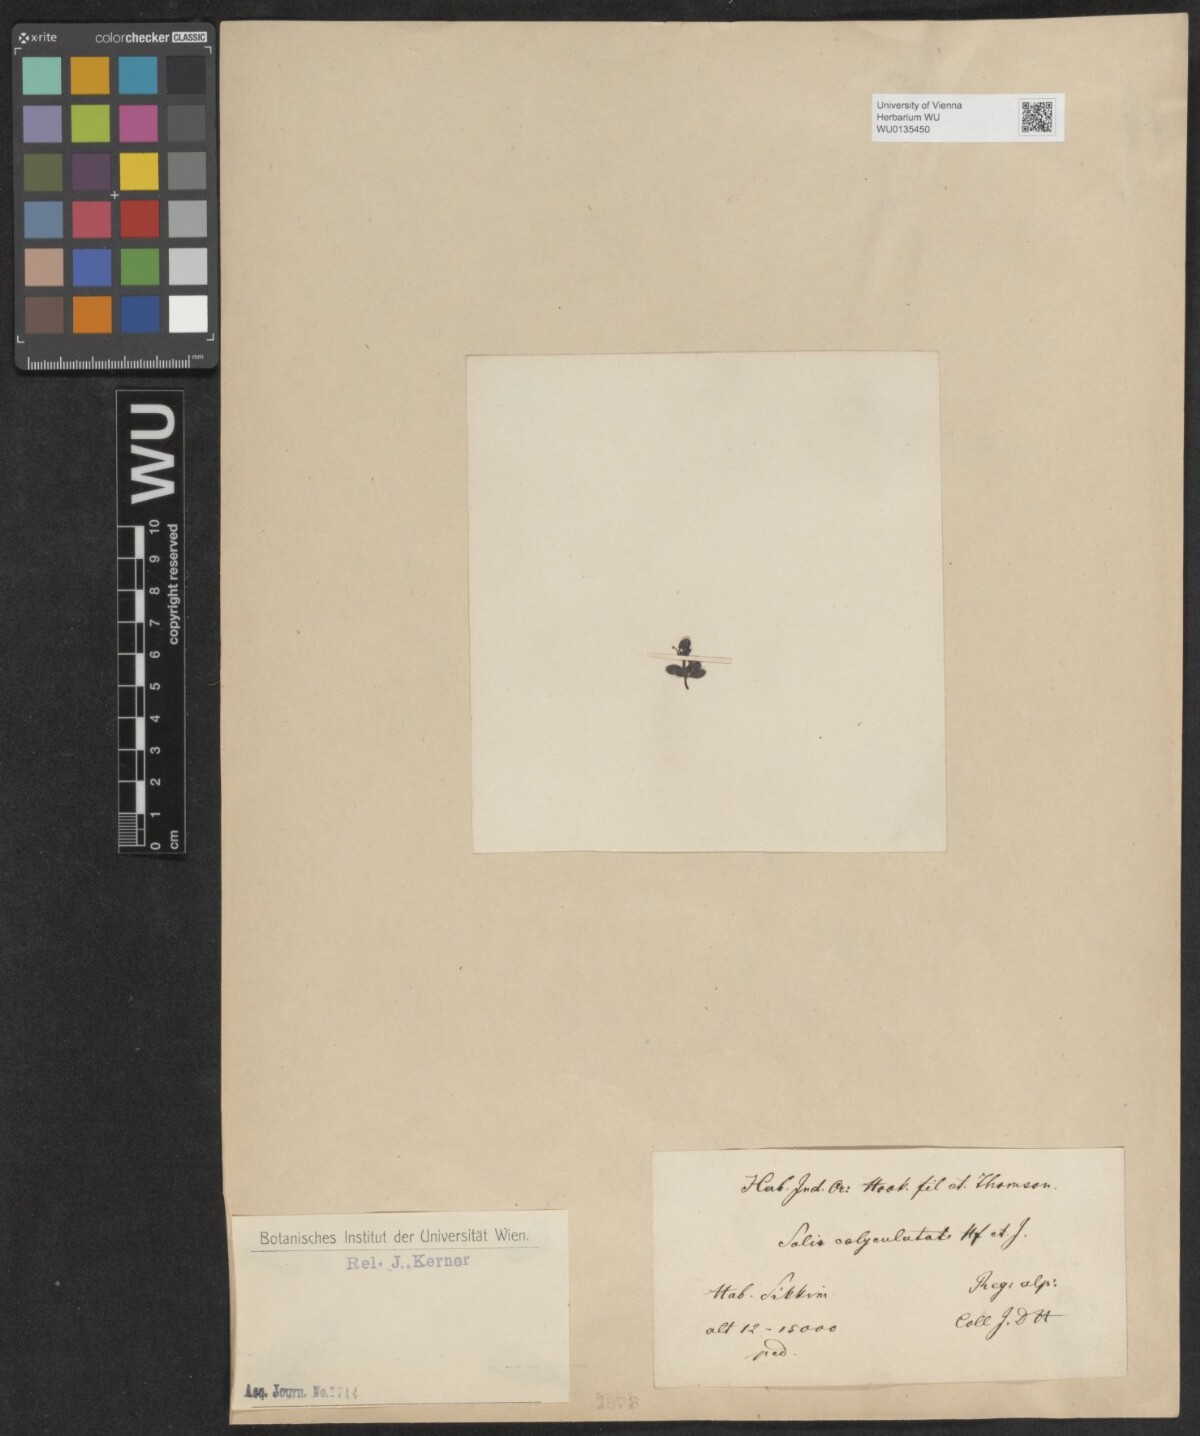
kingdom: Plantae
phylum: Tracheophyta
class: Magnoliopsida
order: Malpighiales
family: Salicaceae
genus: Salix
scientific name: Salix calyculata
